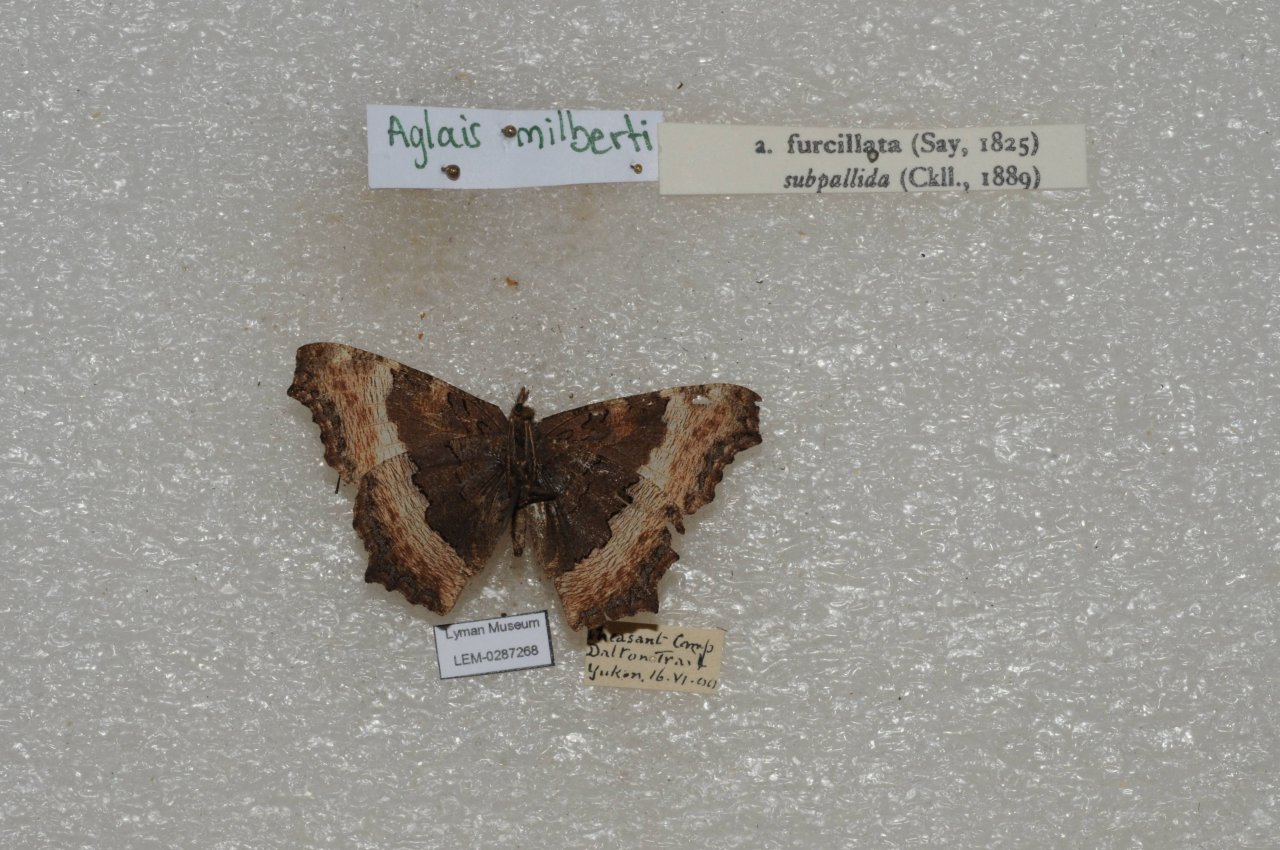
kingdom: Animalia
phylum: Arthropoda
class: Insecta
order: Lepidoptera
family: Nymphalidae
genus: Aglais
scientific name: Aglais milberti
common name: Milbert's Tortoiseshell
